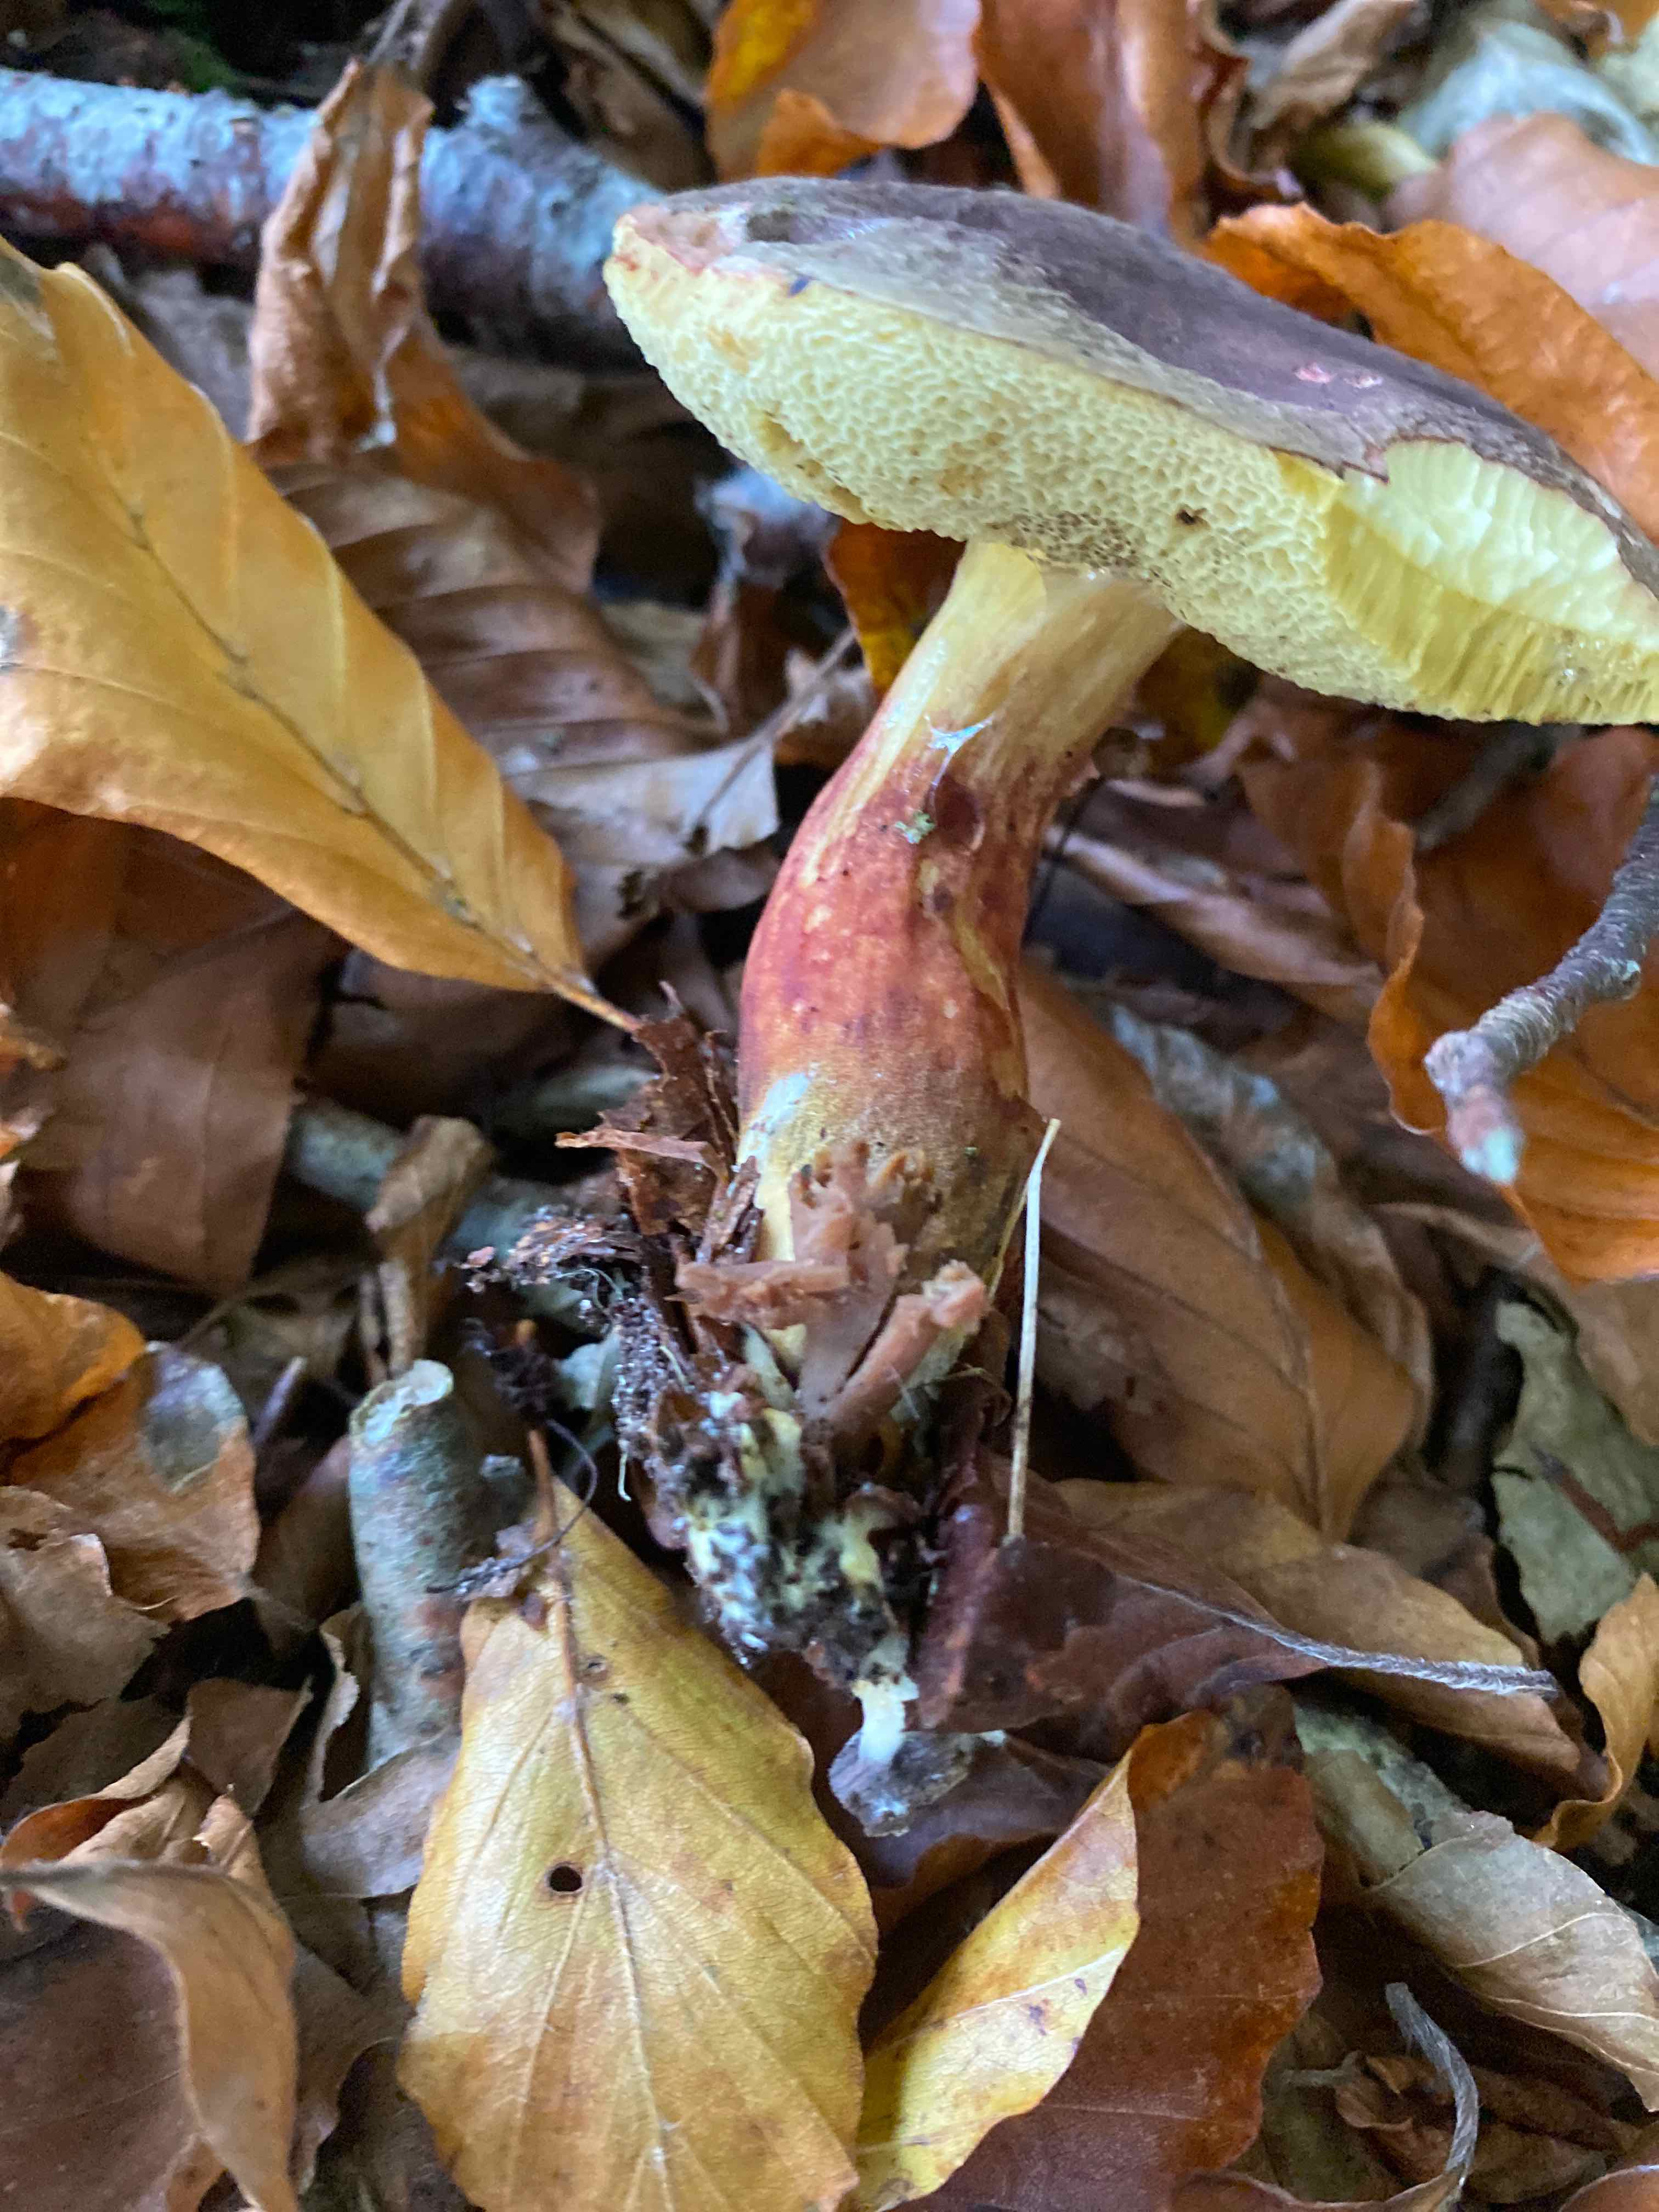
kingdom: Fungi
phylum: Basidiomycota
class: Agaricomycetes
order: Boletales
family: Boletaceae
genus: Xerocomellus
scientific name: Xerocomellus pruinatus
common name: dugget rørhat
